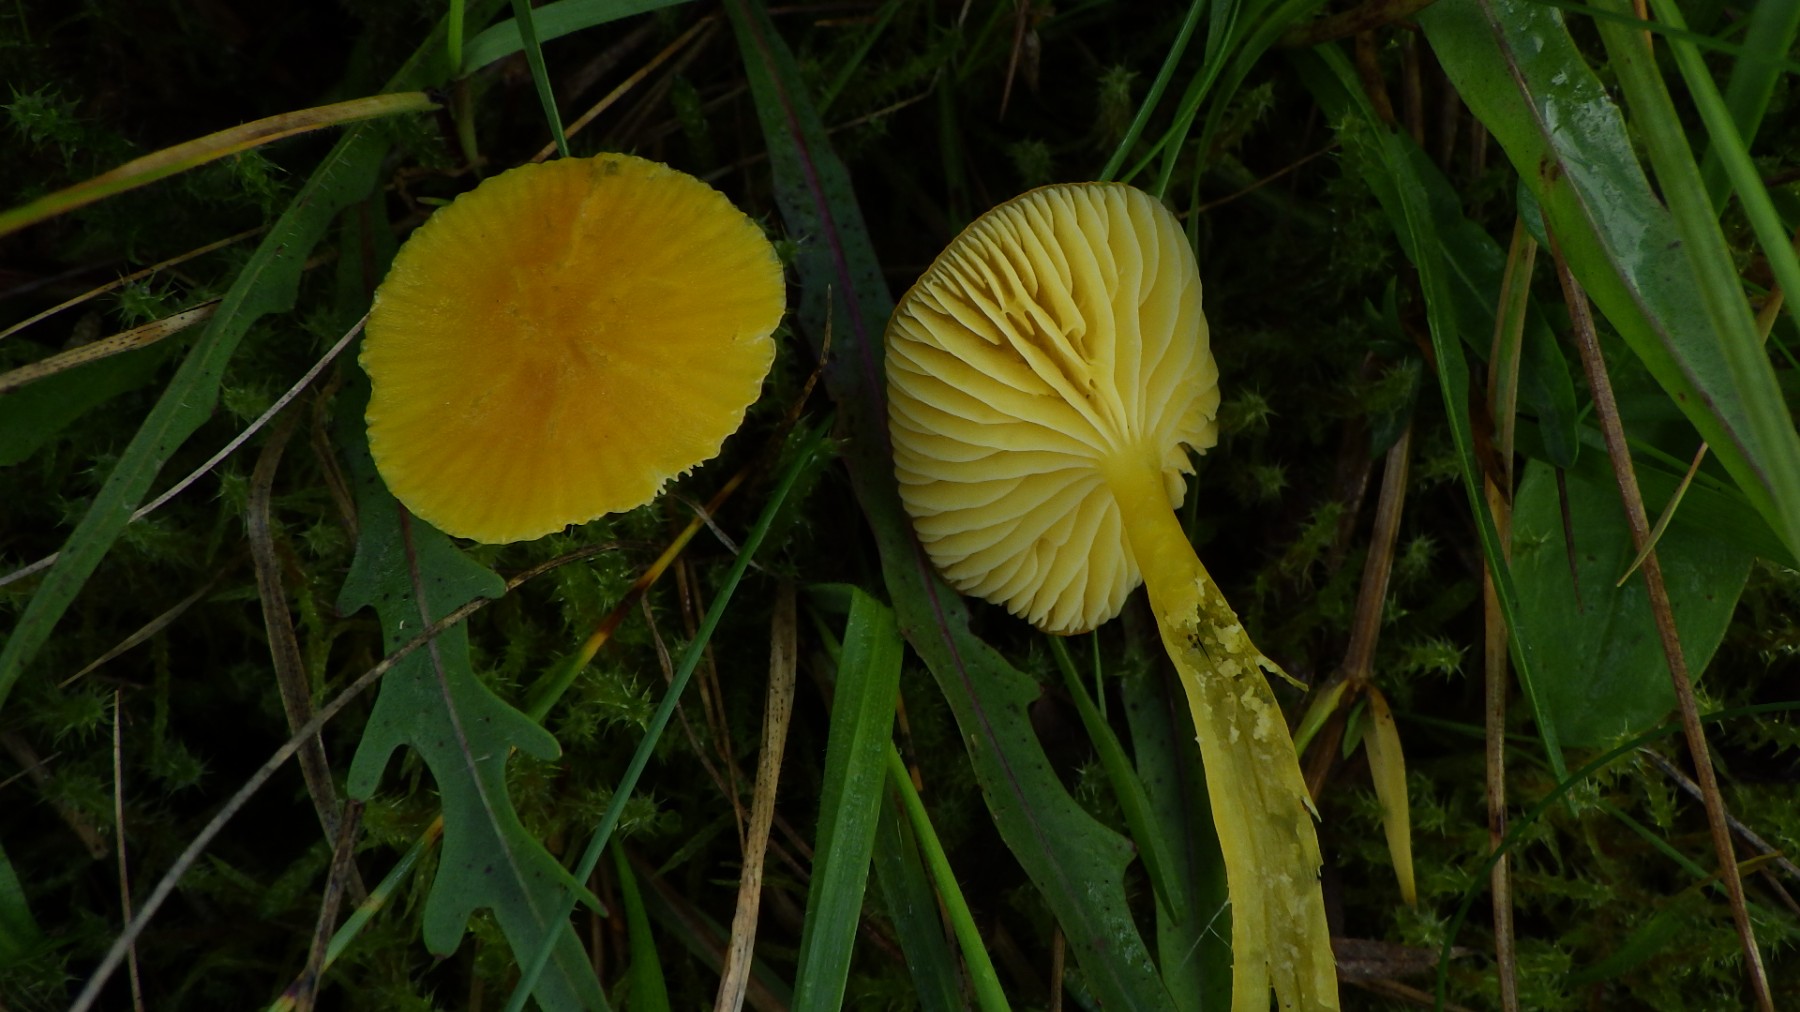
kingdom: Fungi
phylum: Basidiomycota
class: Agaricomycetes
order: Agaricales
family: Hygrophoraceae
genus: Hygrocybe
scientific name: Hygrocybe ceracea
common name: voksgul vokshat
